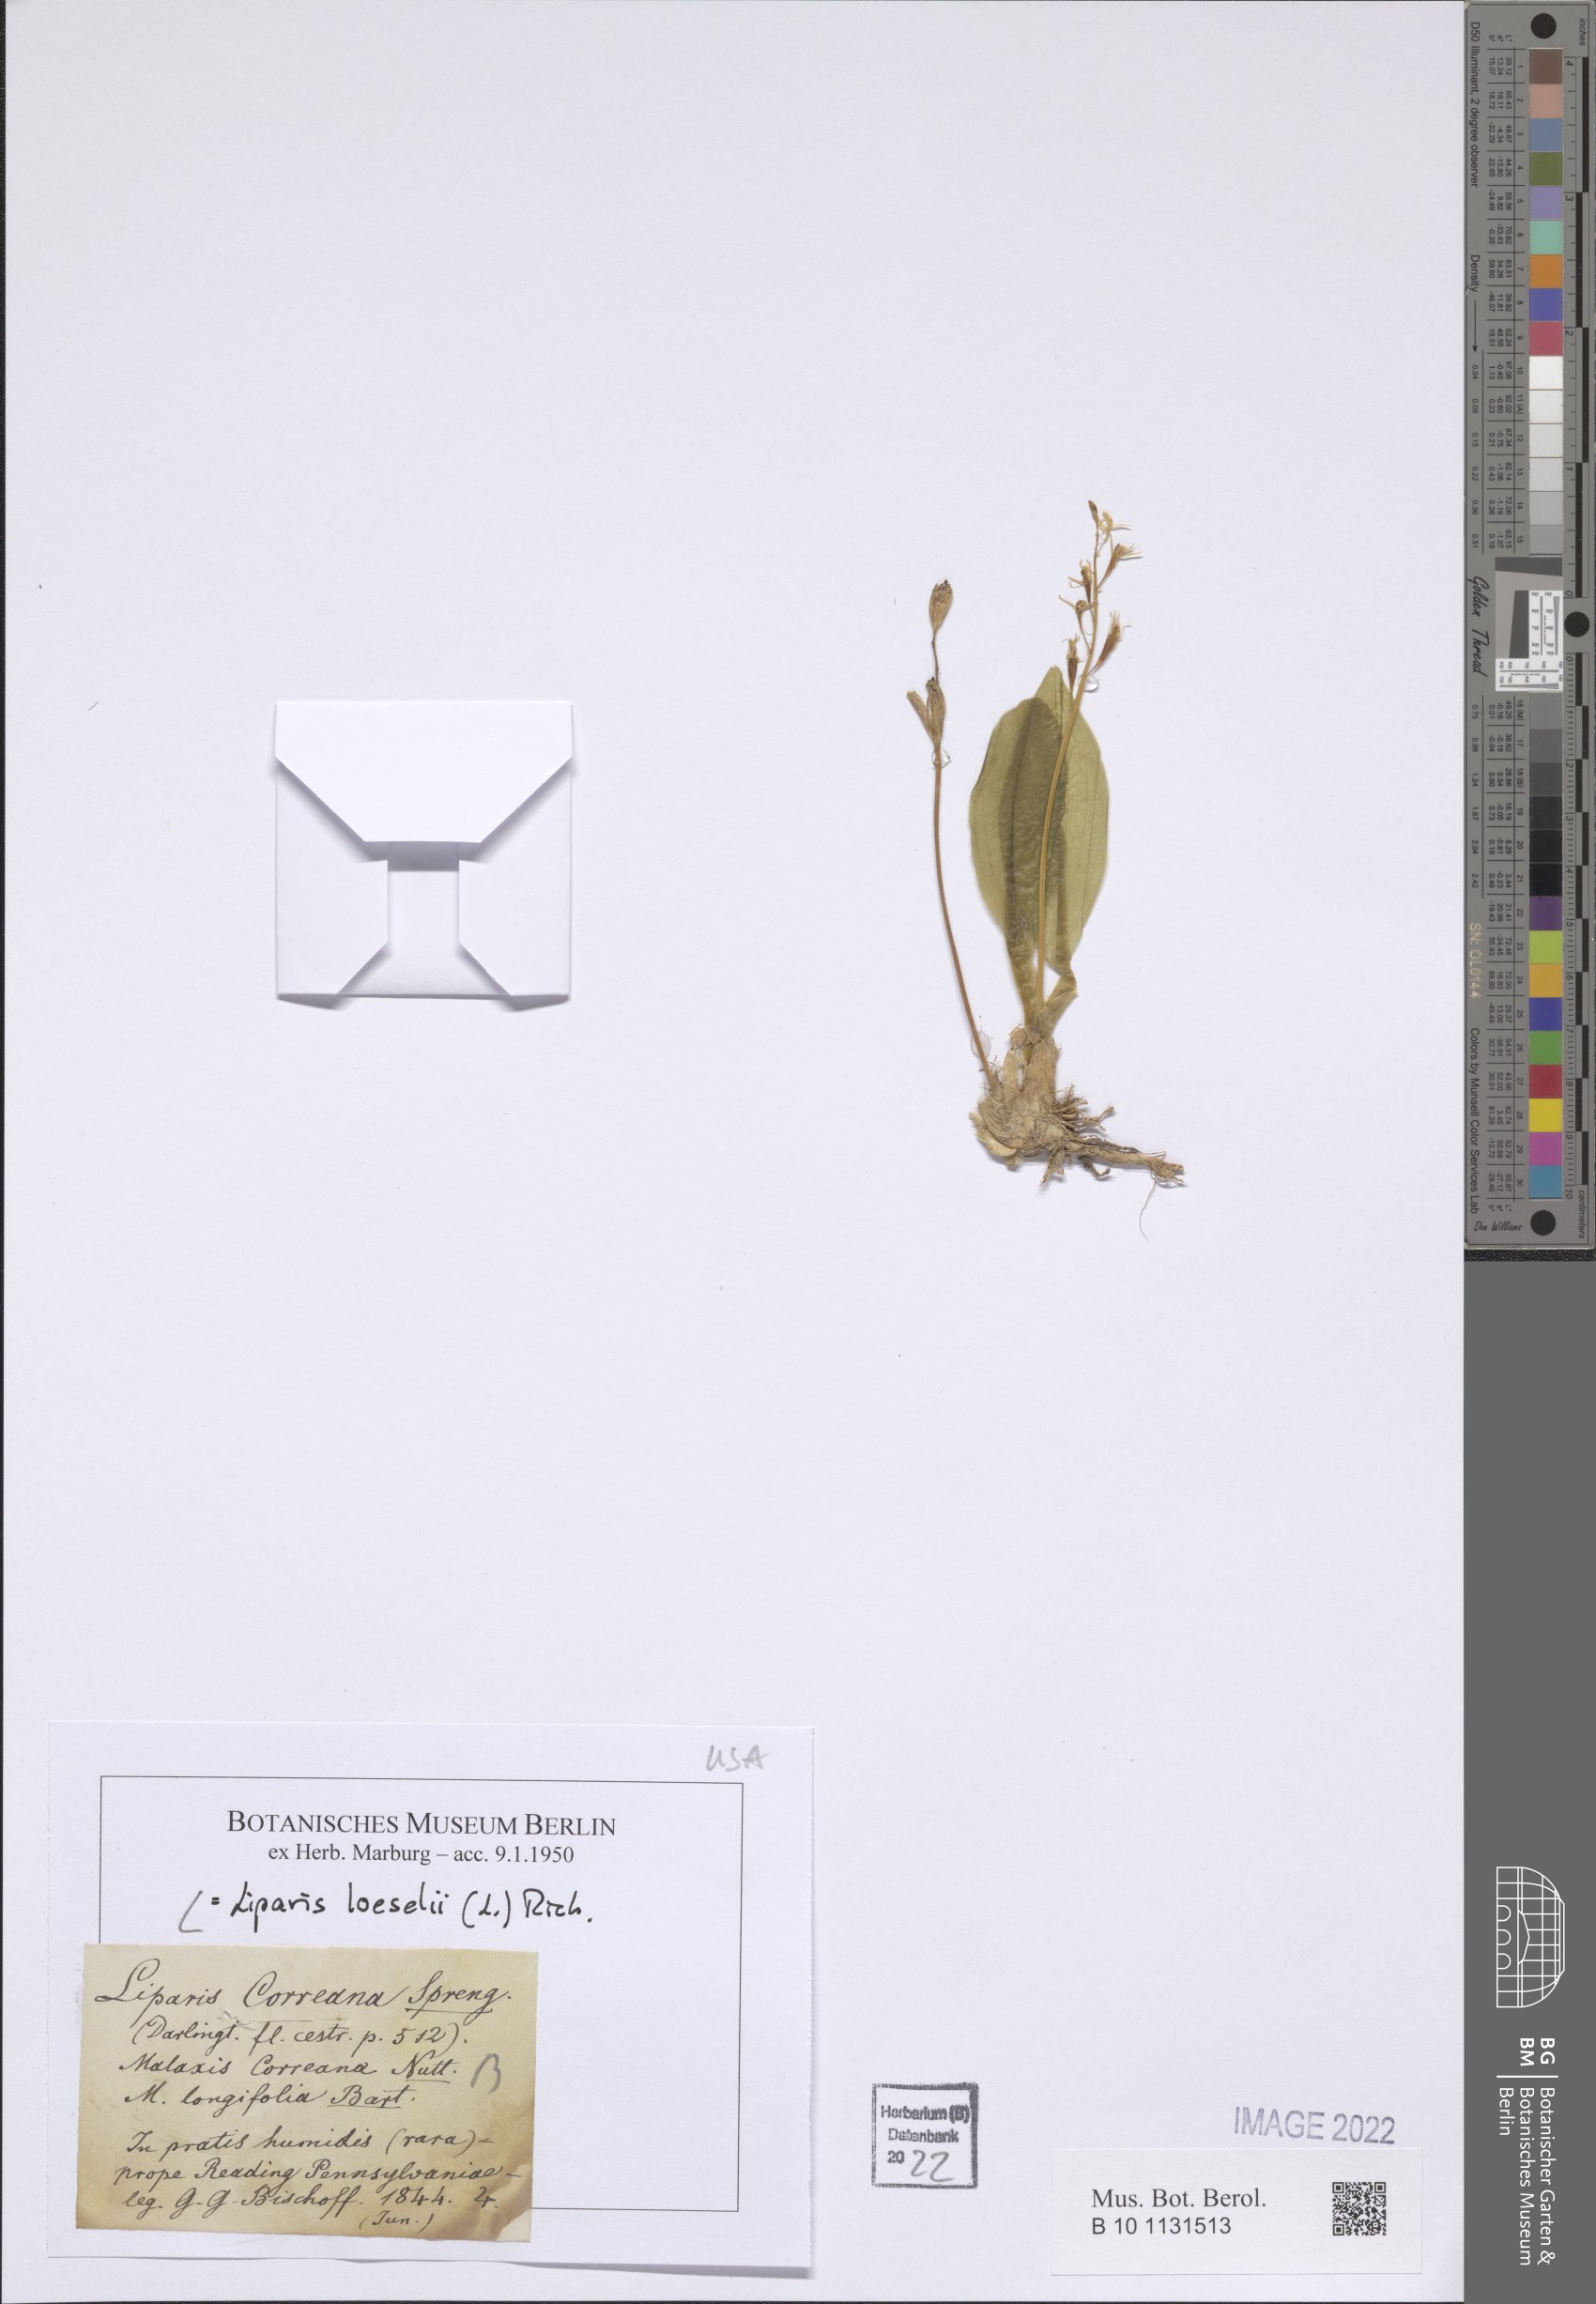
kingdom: Animalia
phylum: Arthropoda
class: Insecta
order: Coleoptera
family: Curculionidae
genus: Liparis
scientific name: Liparis loeselii
